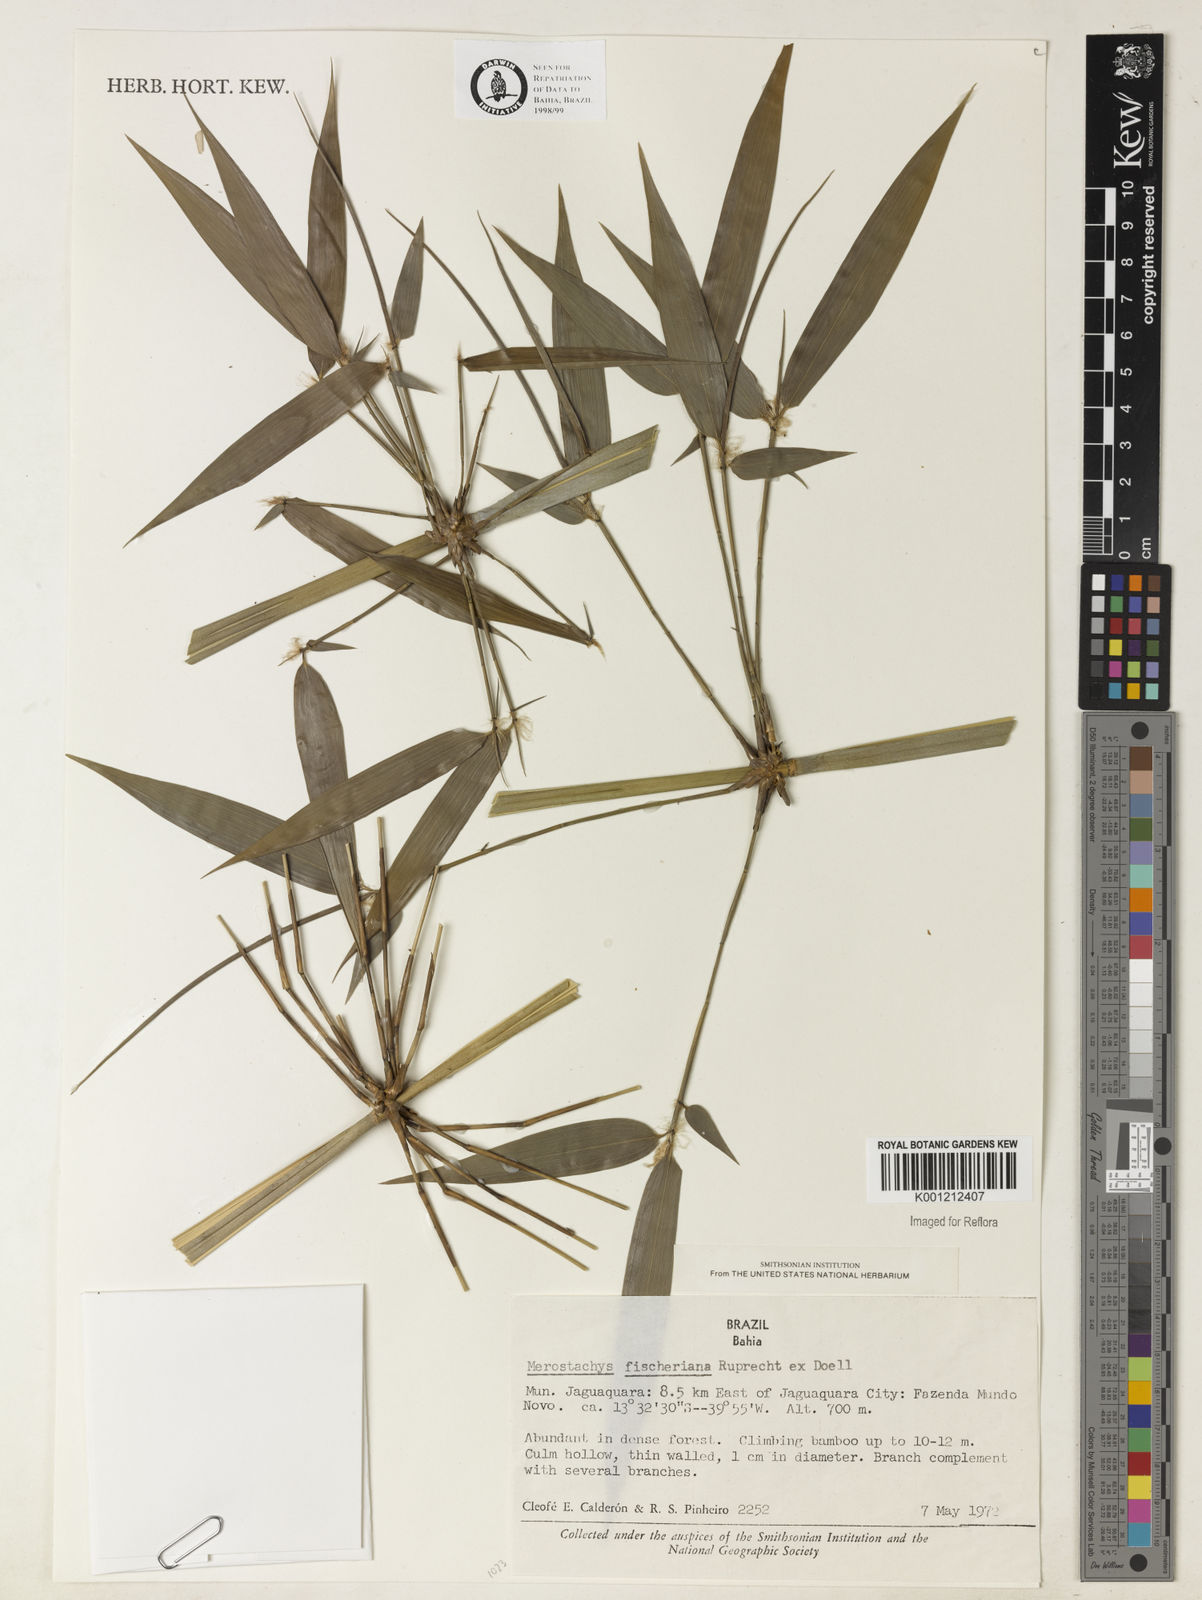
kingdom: Plantae
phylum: Tracheophyta
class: Liliopsida
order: Poales
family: Poaceae
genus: Merostachys
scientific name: Merostachys
